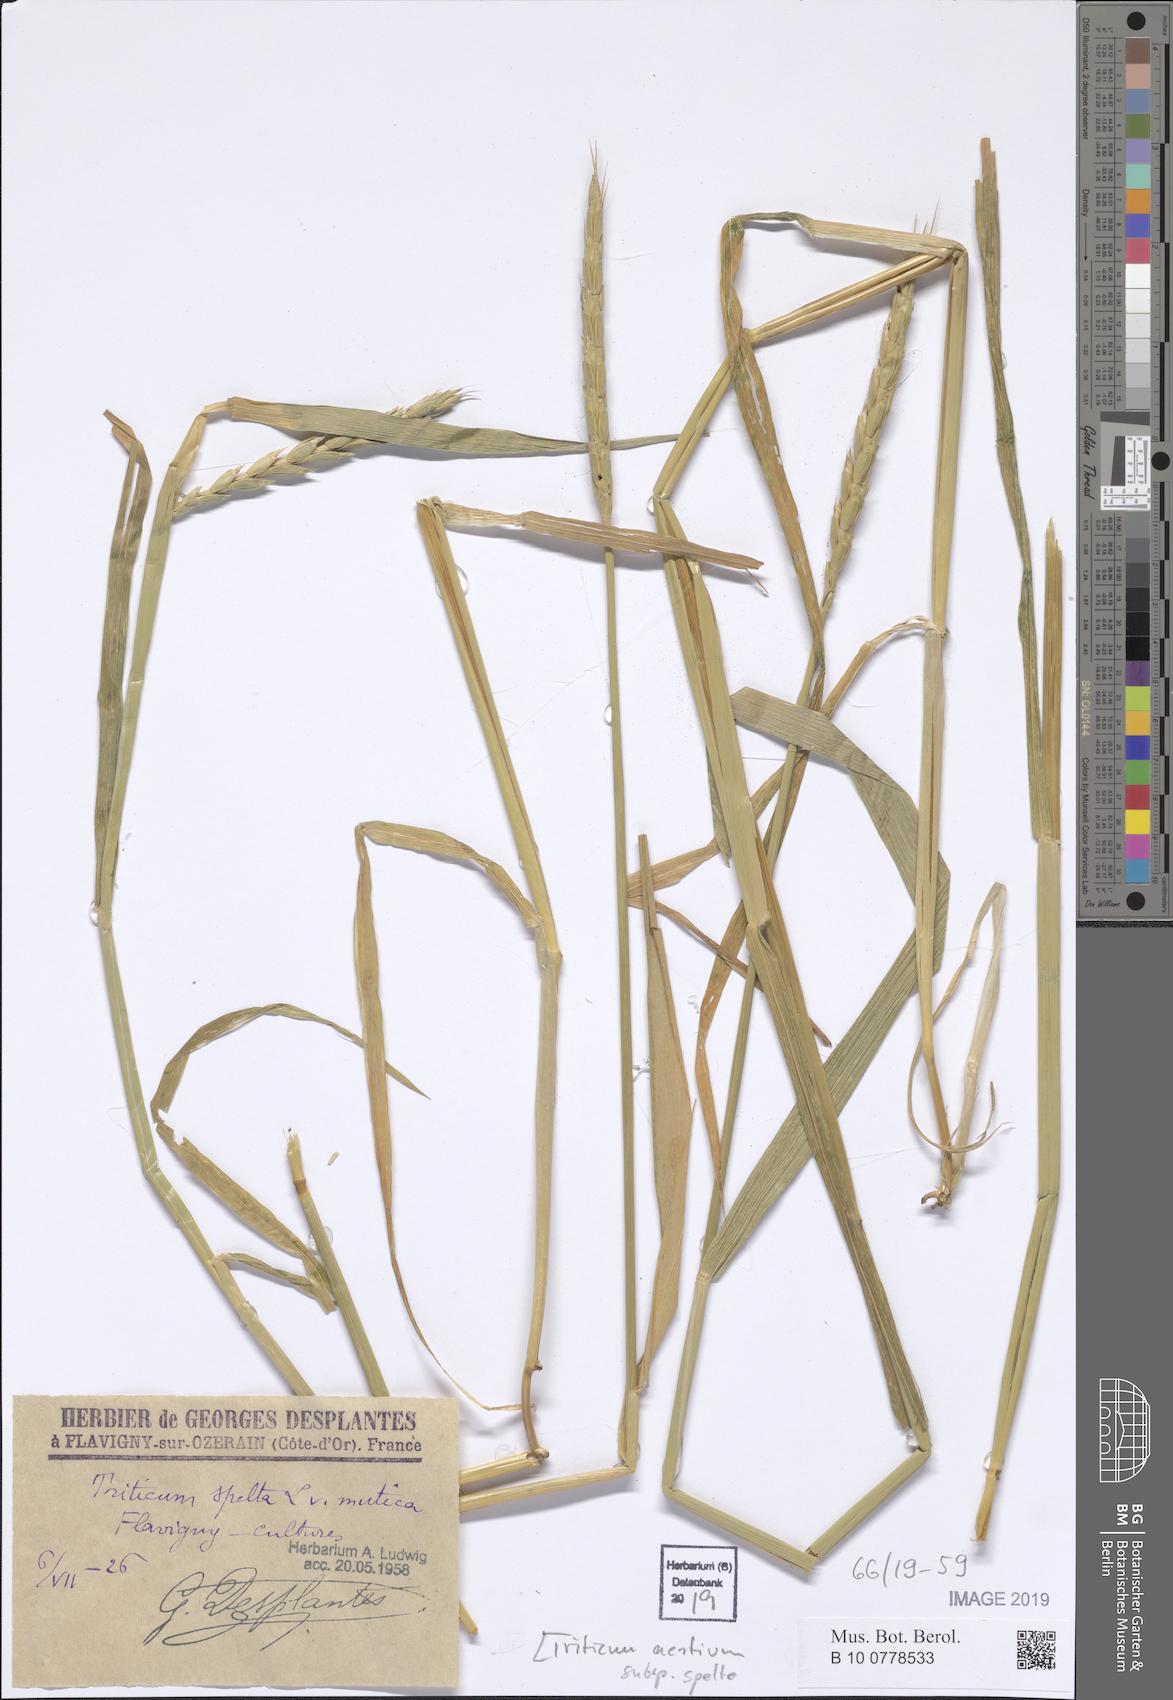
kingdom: Plantae
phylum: Tracheophyta
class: Liliopsida
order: Poales
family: Poaceae
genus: Triticum
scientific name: Triticum aestivum
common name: Common wheat
